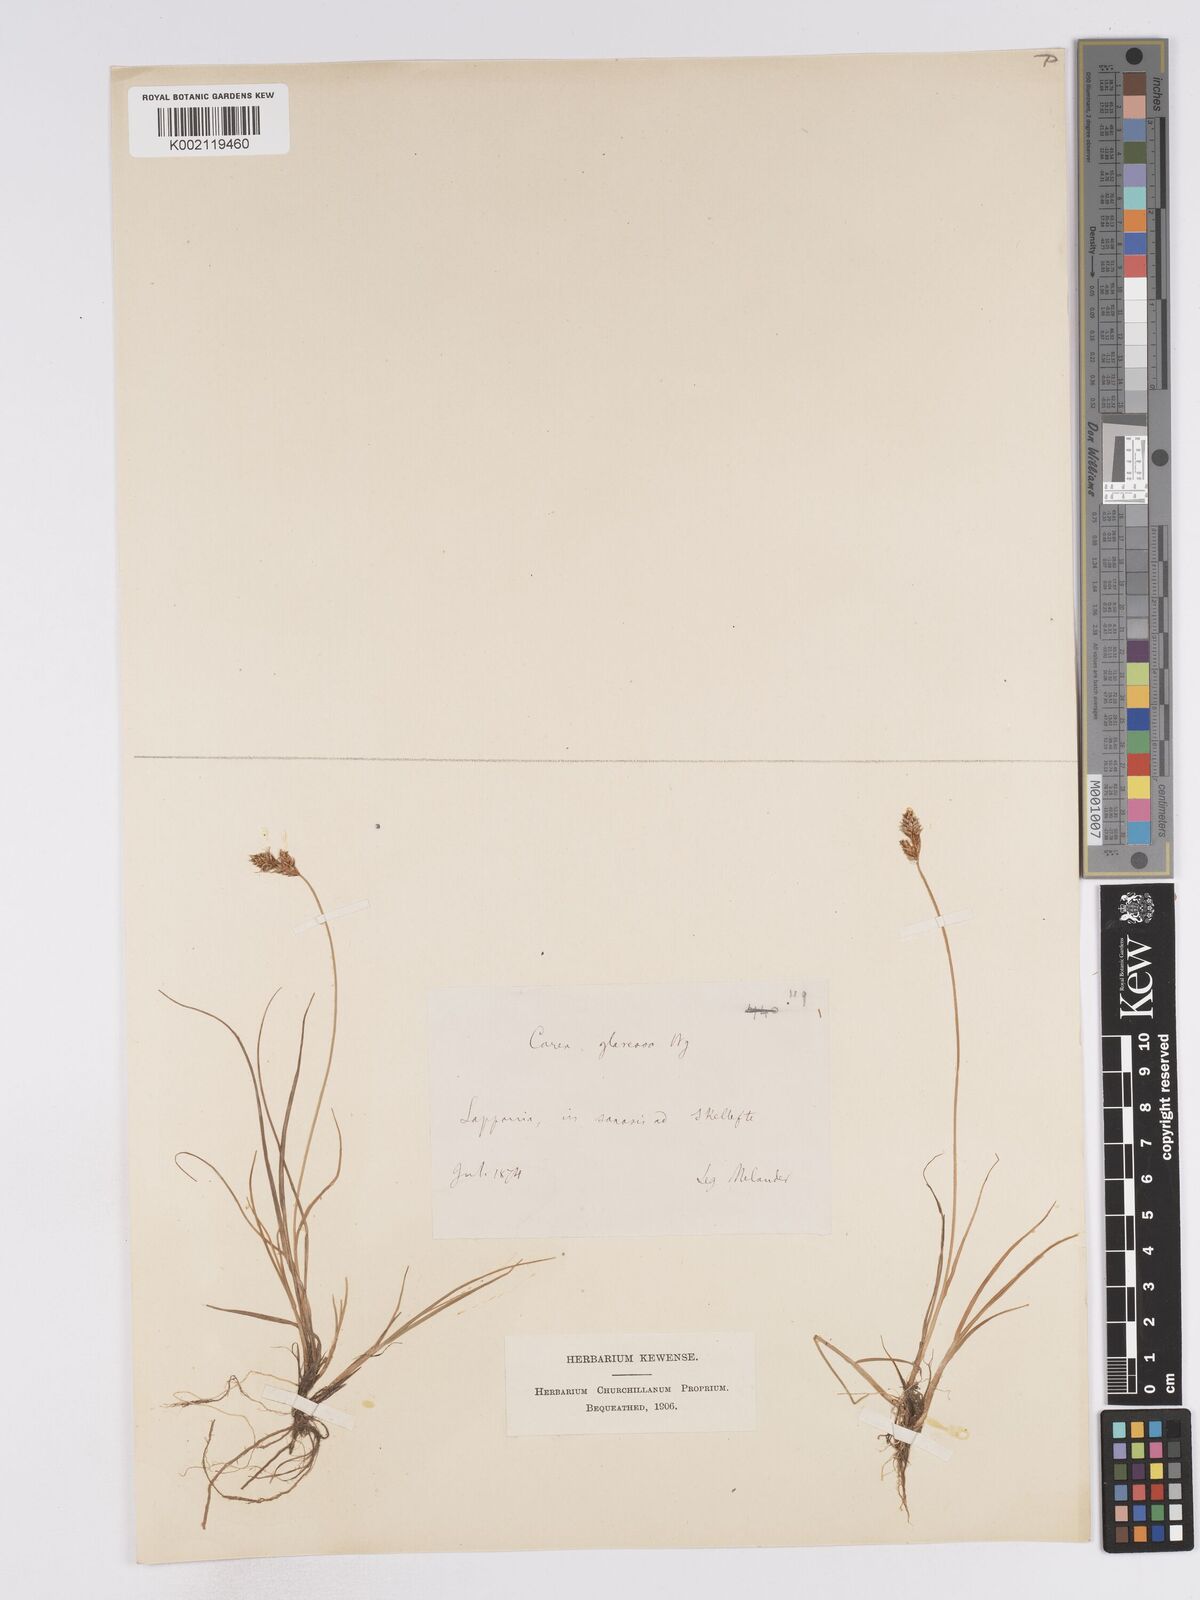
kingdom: Plantae
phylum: Tracheophyta
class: Liliopsida
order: Poales
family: Cyperaceae
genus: Carex
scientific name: Carex glareosa
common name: Clustered sedge
